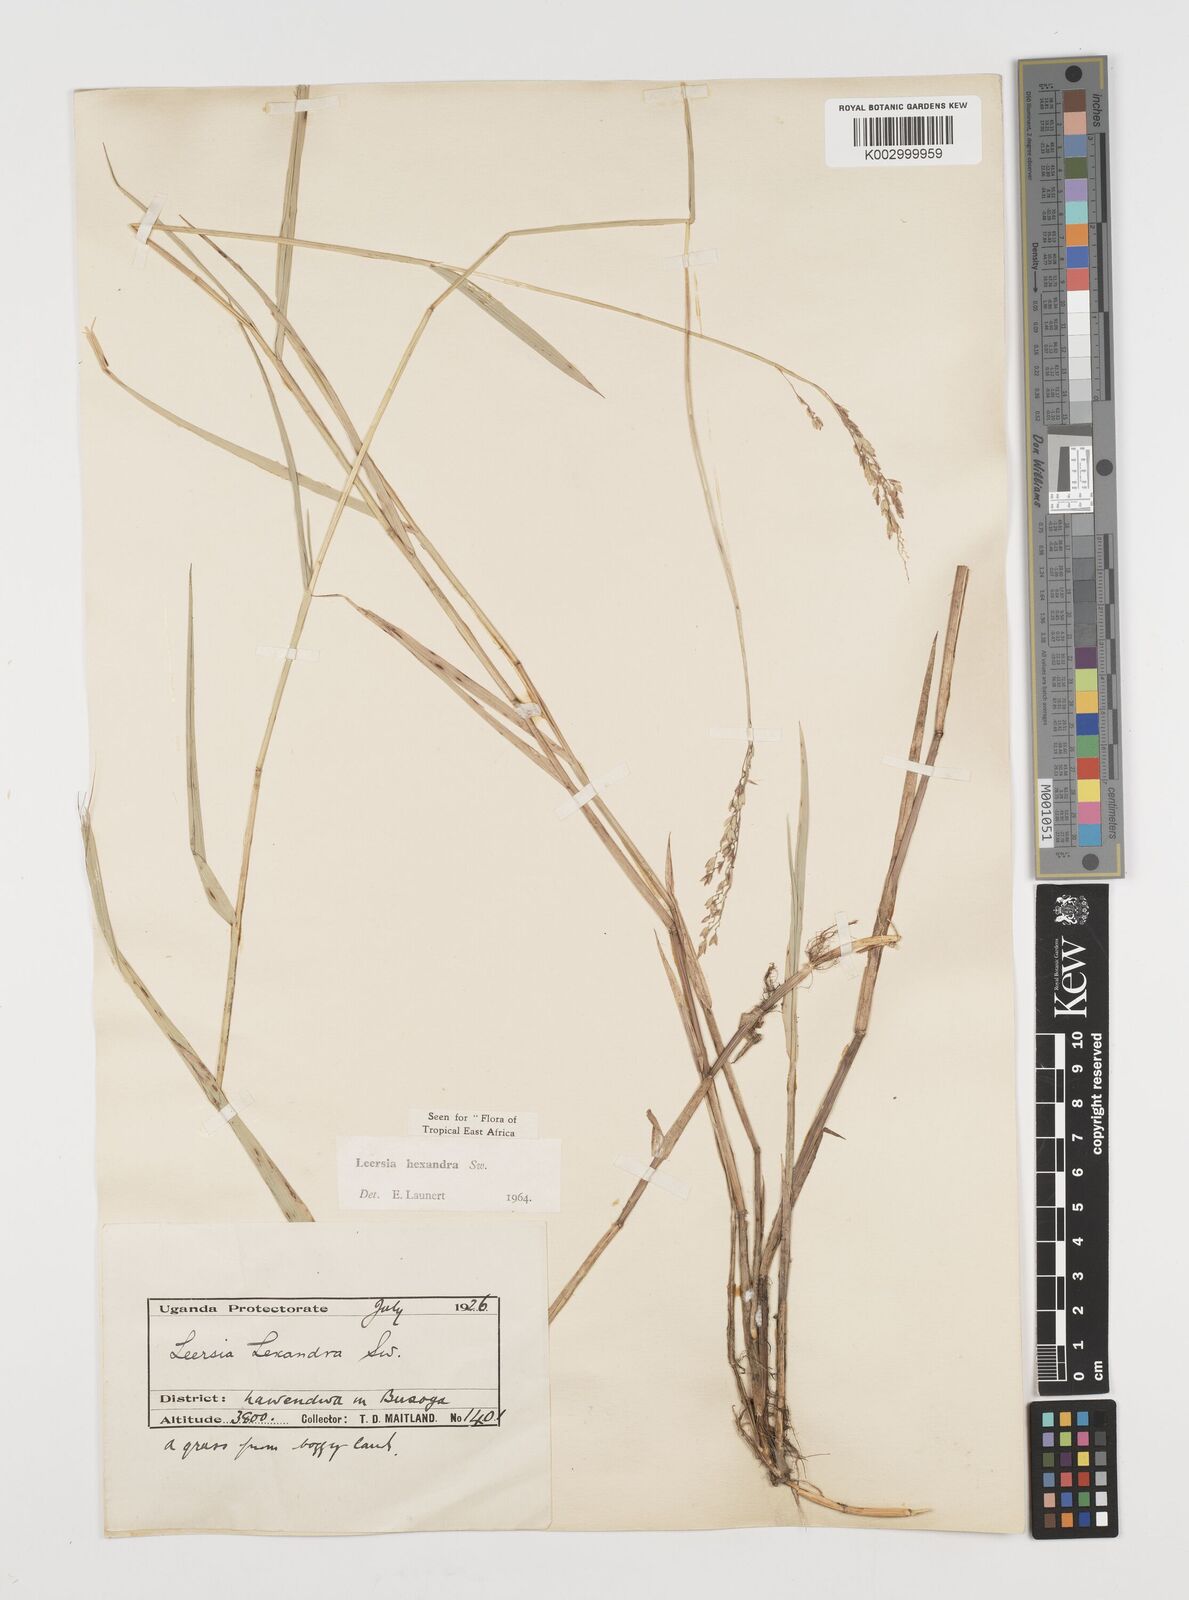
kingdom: Plantae
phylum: Tracheophyta
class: Liliopsida
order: Poales
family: Poaceae
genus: Leersia
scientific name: Leersia hexandra
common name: Southern cut grass
